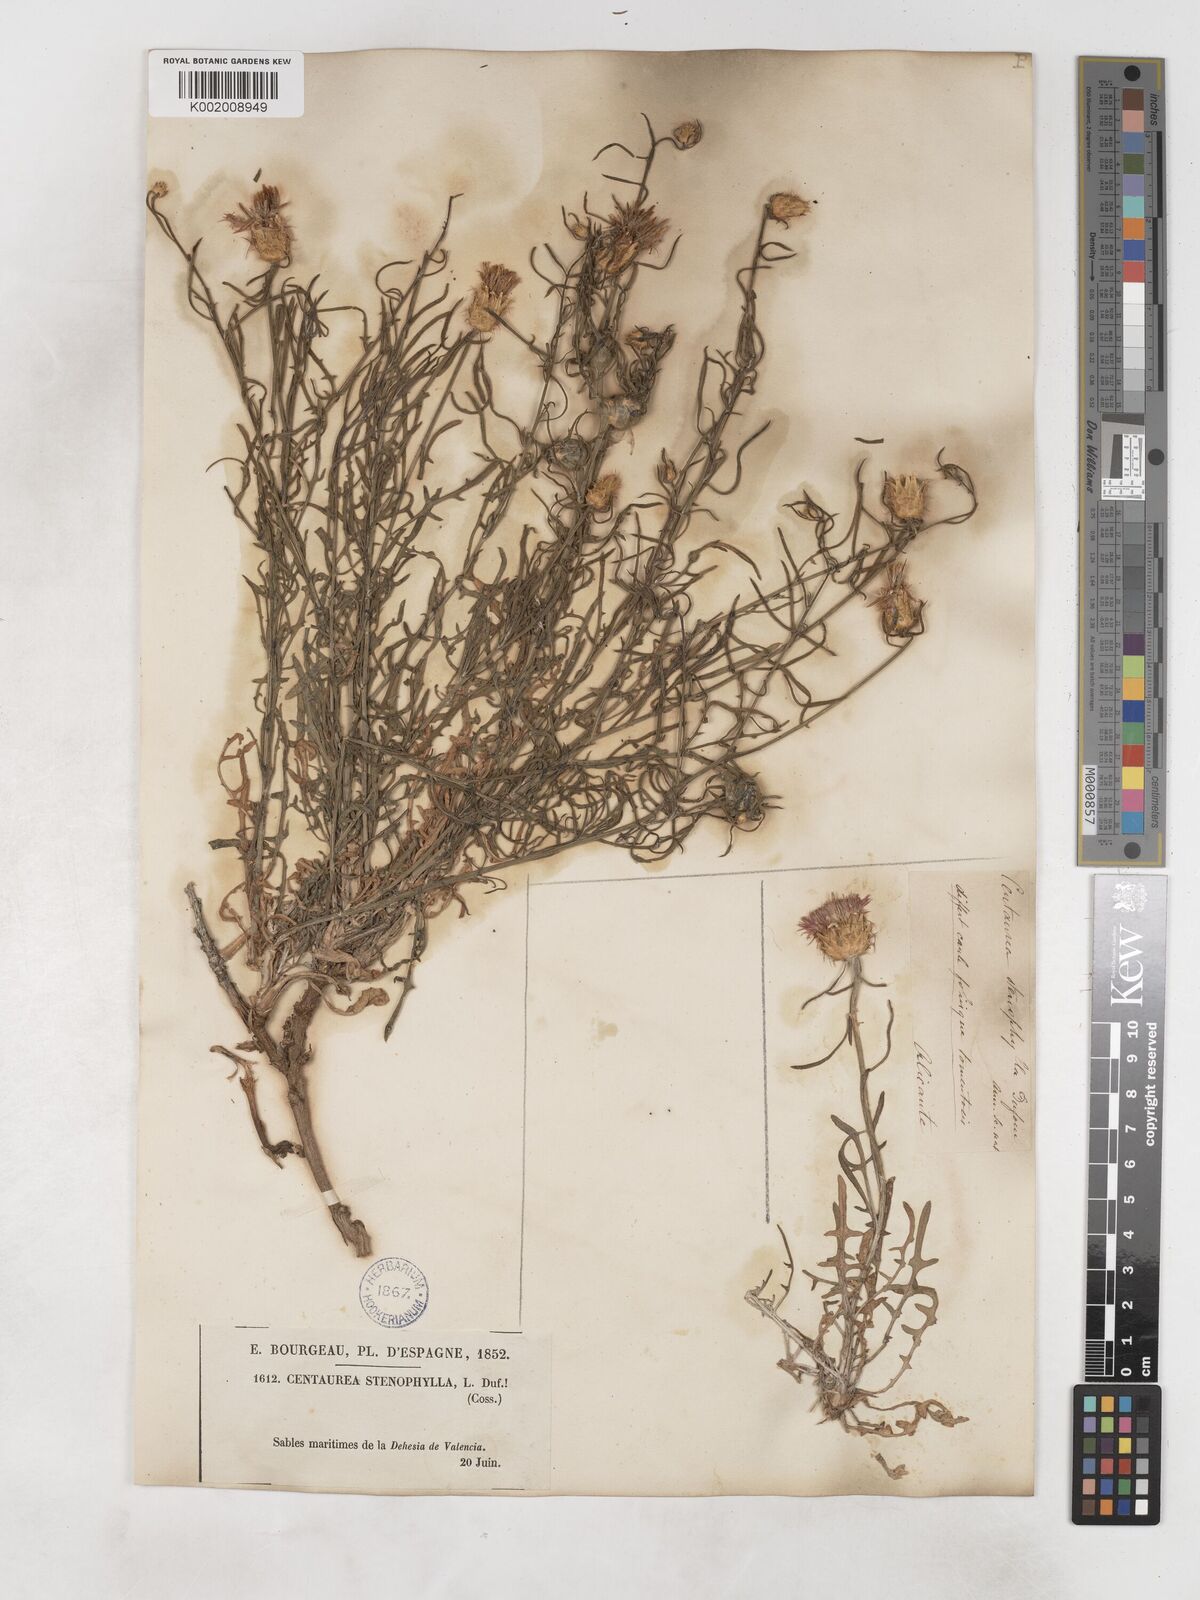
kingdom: Plantae
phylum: Tracheophyta
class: Magnoliopsida
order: Asterales
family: Asteraceae
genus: Centaurea
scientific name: Centaurea aspera
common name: Rough star-thistle
